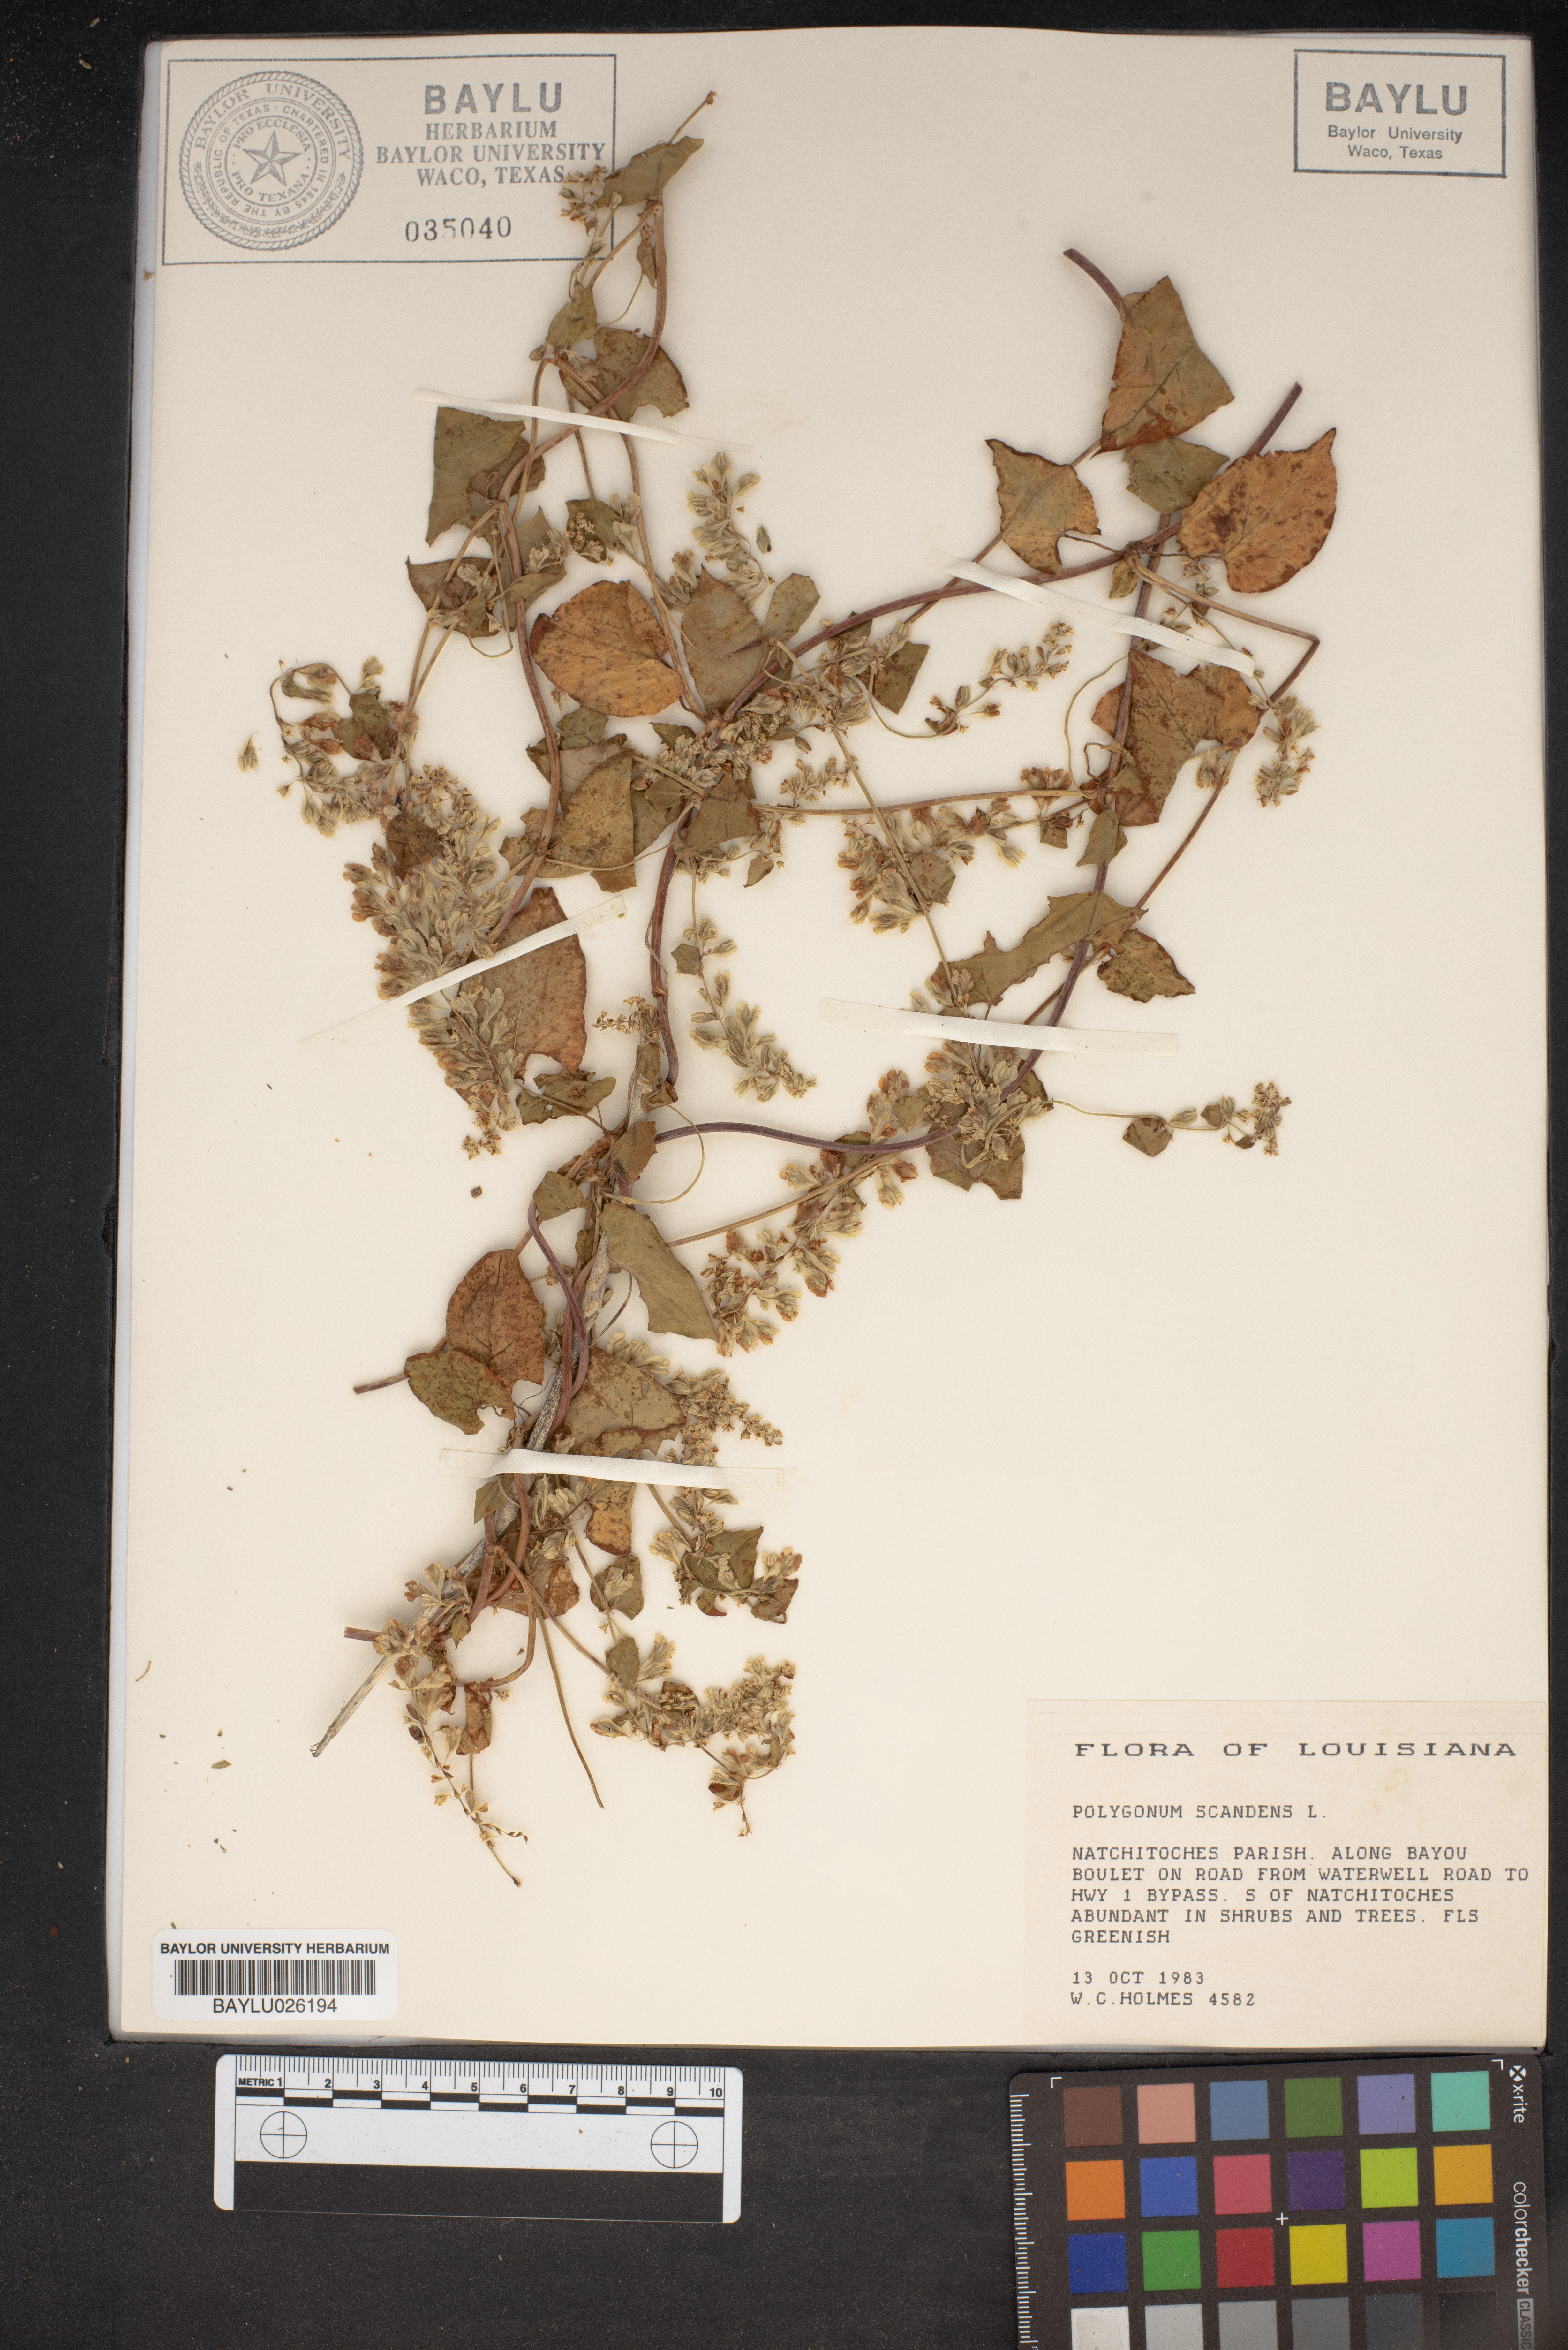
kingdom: Plantae
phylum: Tracheophyta
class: Magnoliopsida
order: Caryophyllales
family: Polygonaceae
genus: Fallopia
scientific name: Fallopia scandens
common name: Climbing false buckwheat
